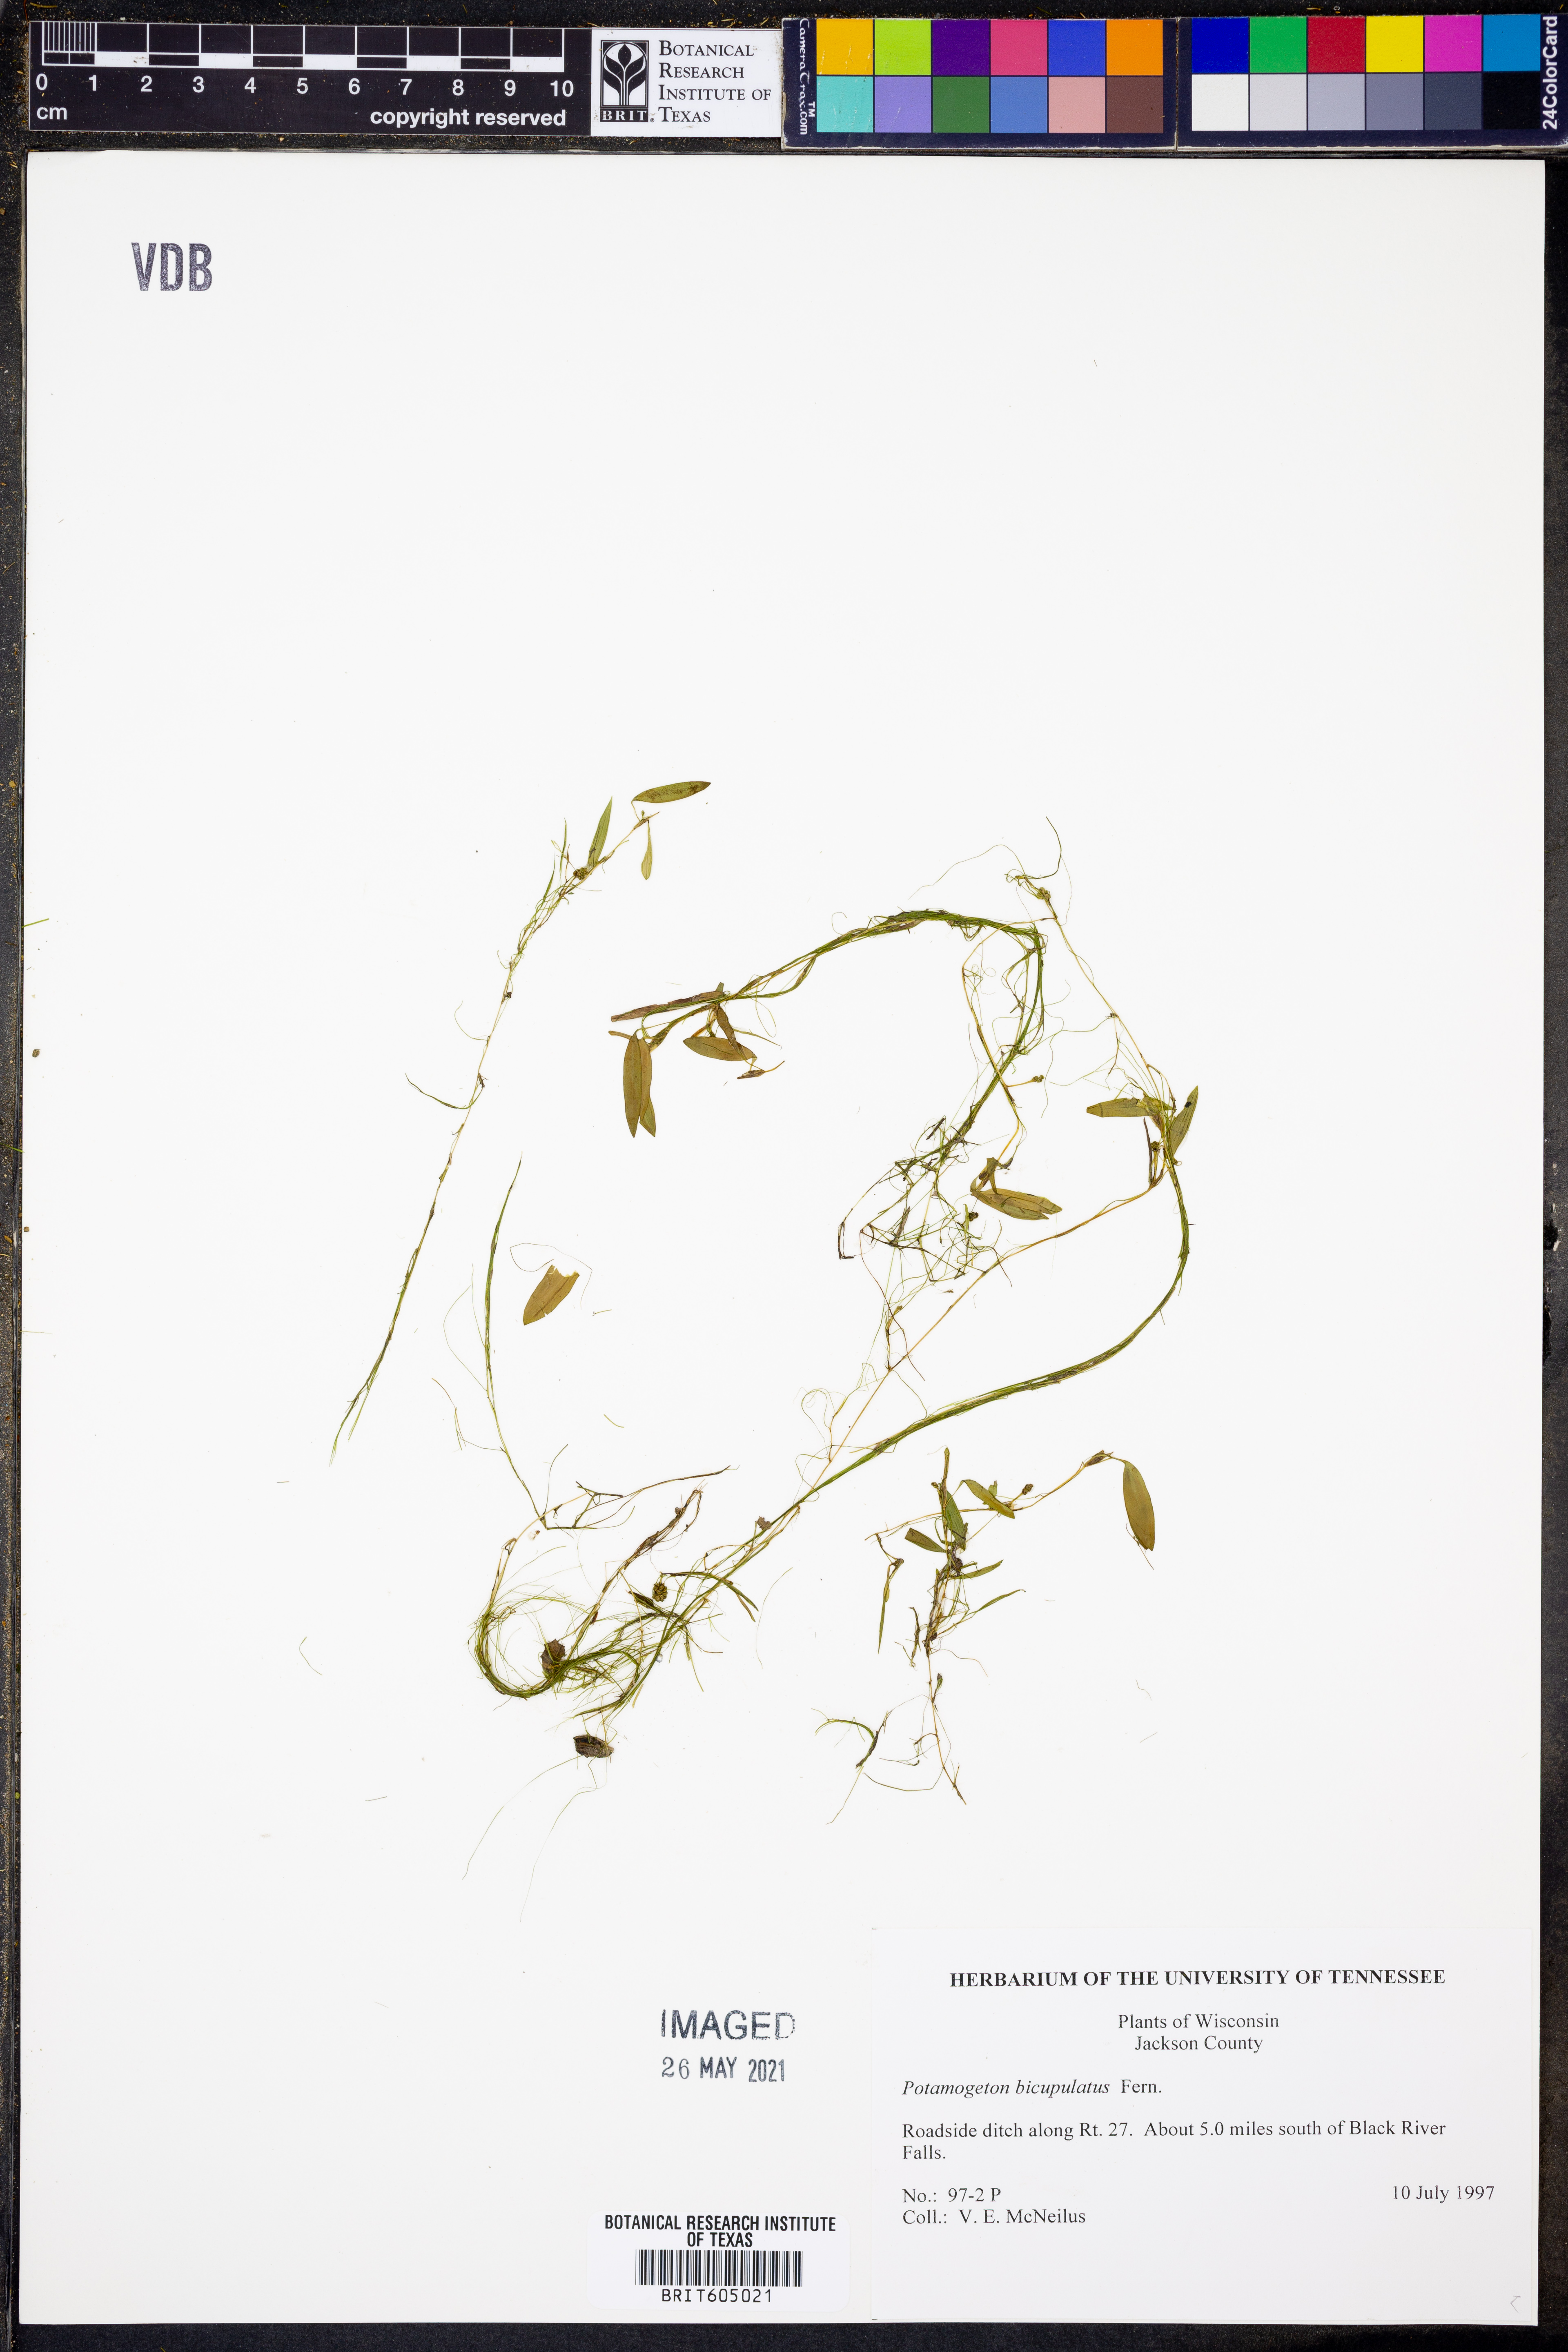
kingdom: Plantae
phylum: Tracheophyta
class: Liliopsida
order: Alismatales
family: Potamogetonaceae
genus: Potamogeton
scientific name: Potamogeton bicupulatus
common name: Snail-seed pondweed
